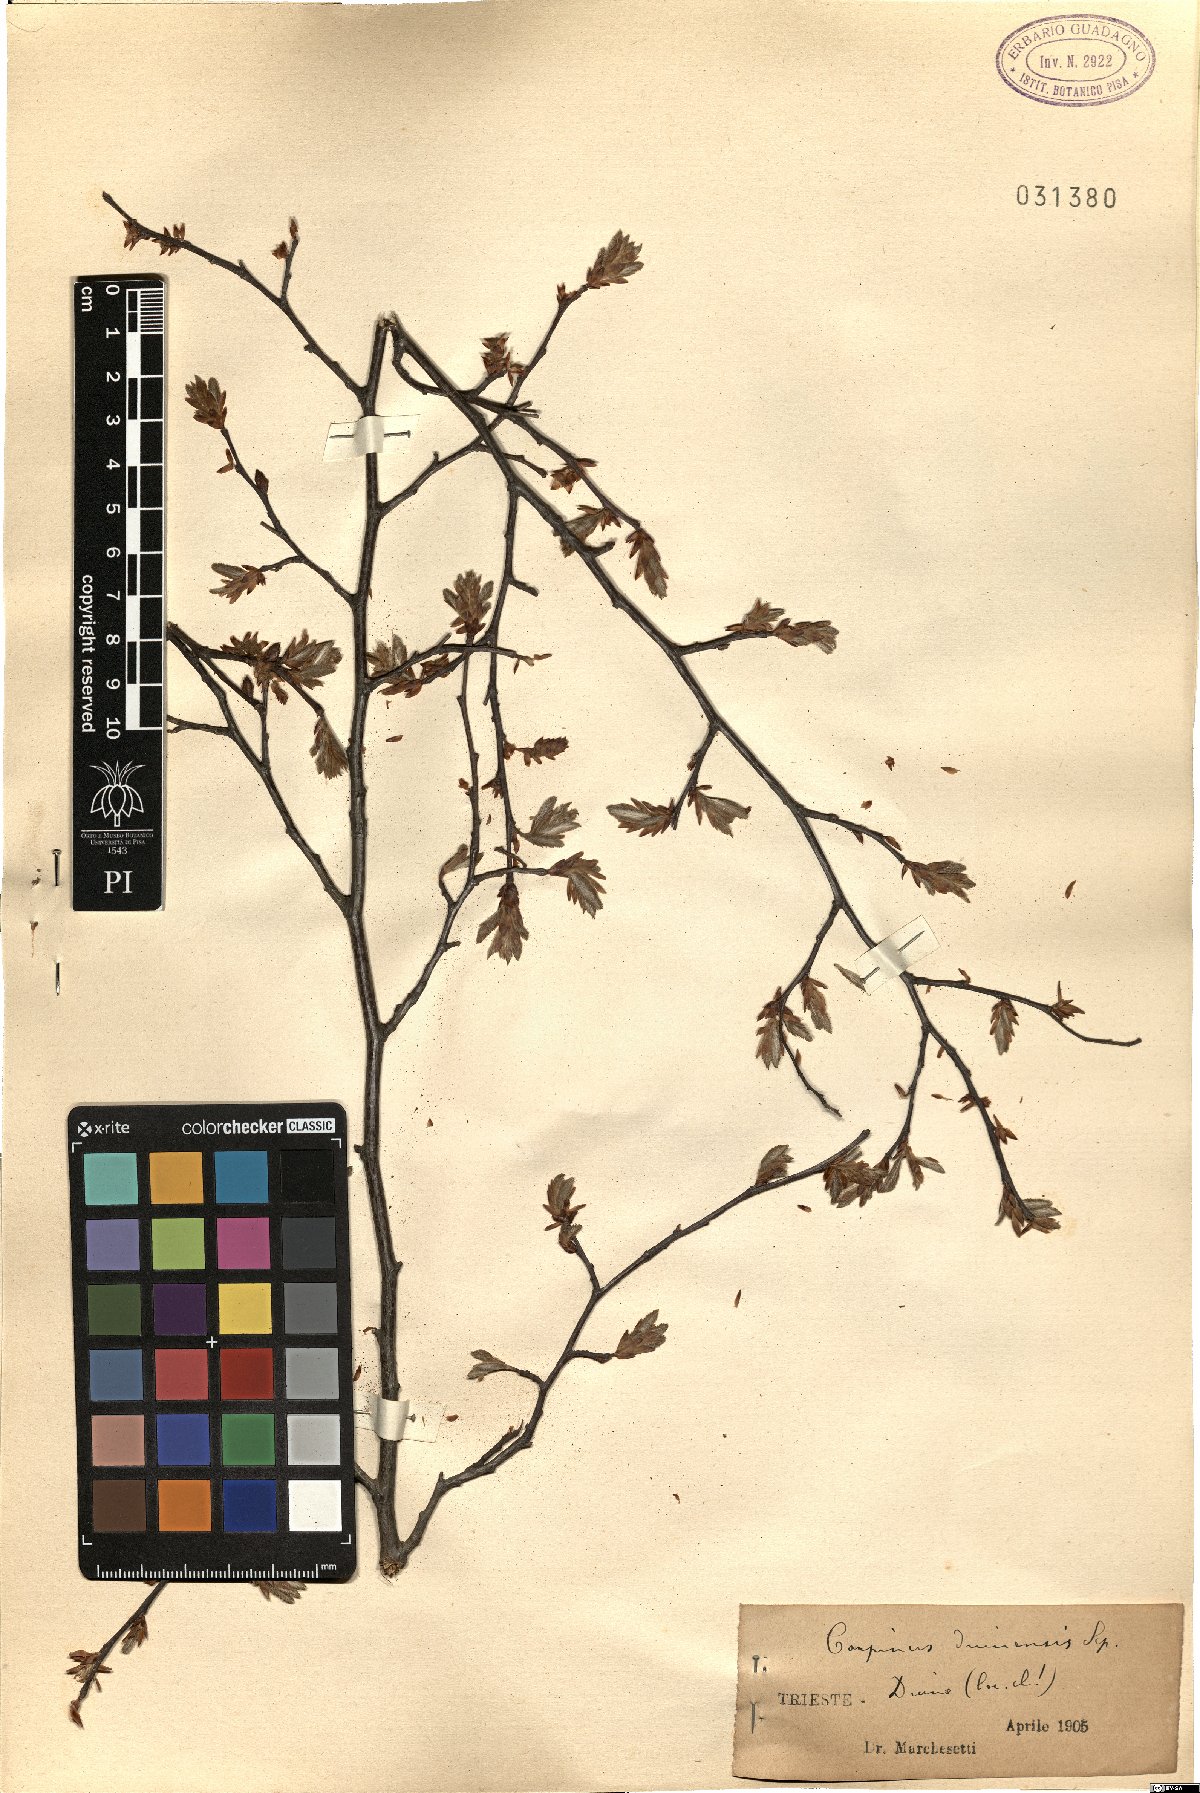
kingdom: Plantae
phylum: Tracheophyta
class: Magnoliopsida
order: Fagales
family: Betulaceae
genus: Carpinus
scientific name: Carpinus orientalis
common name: Eastern hornbeam
